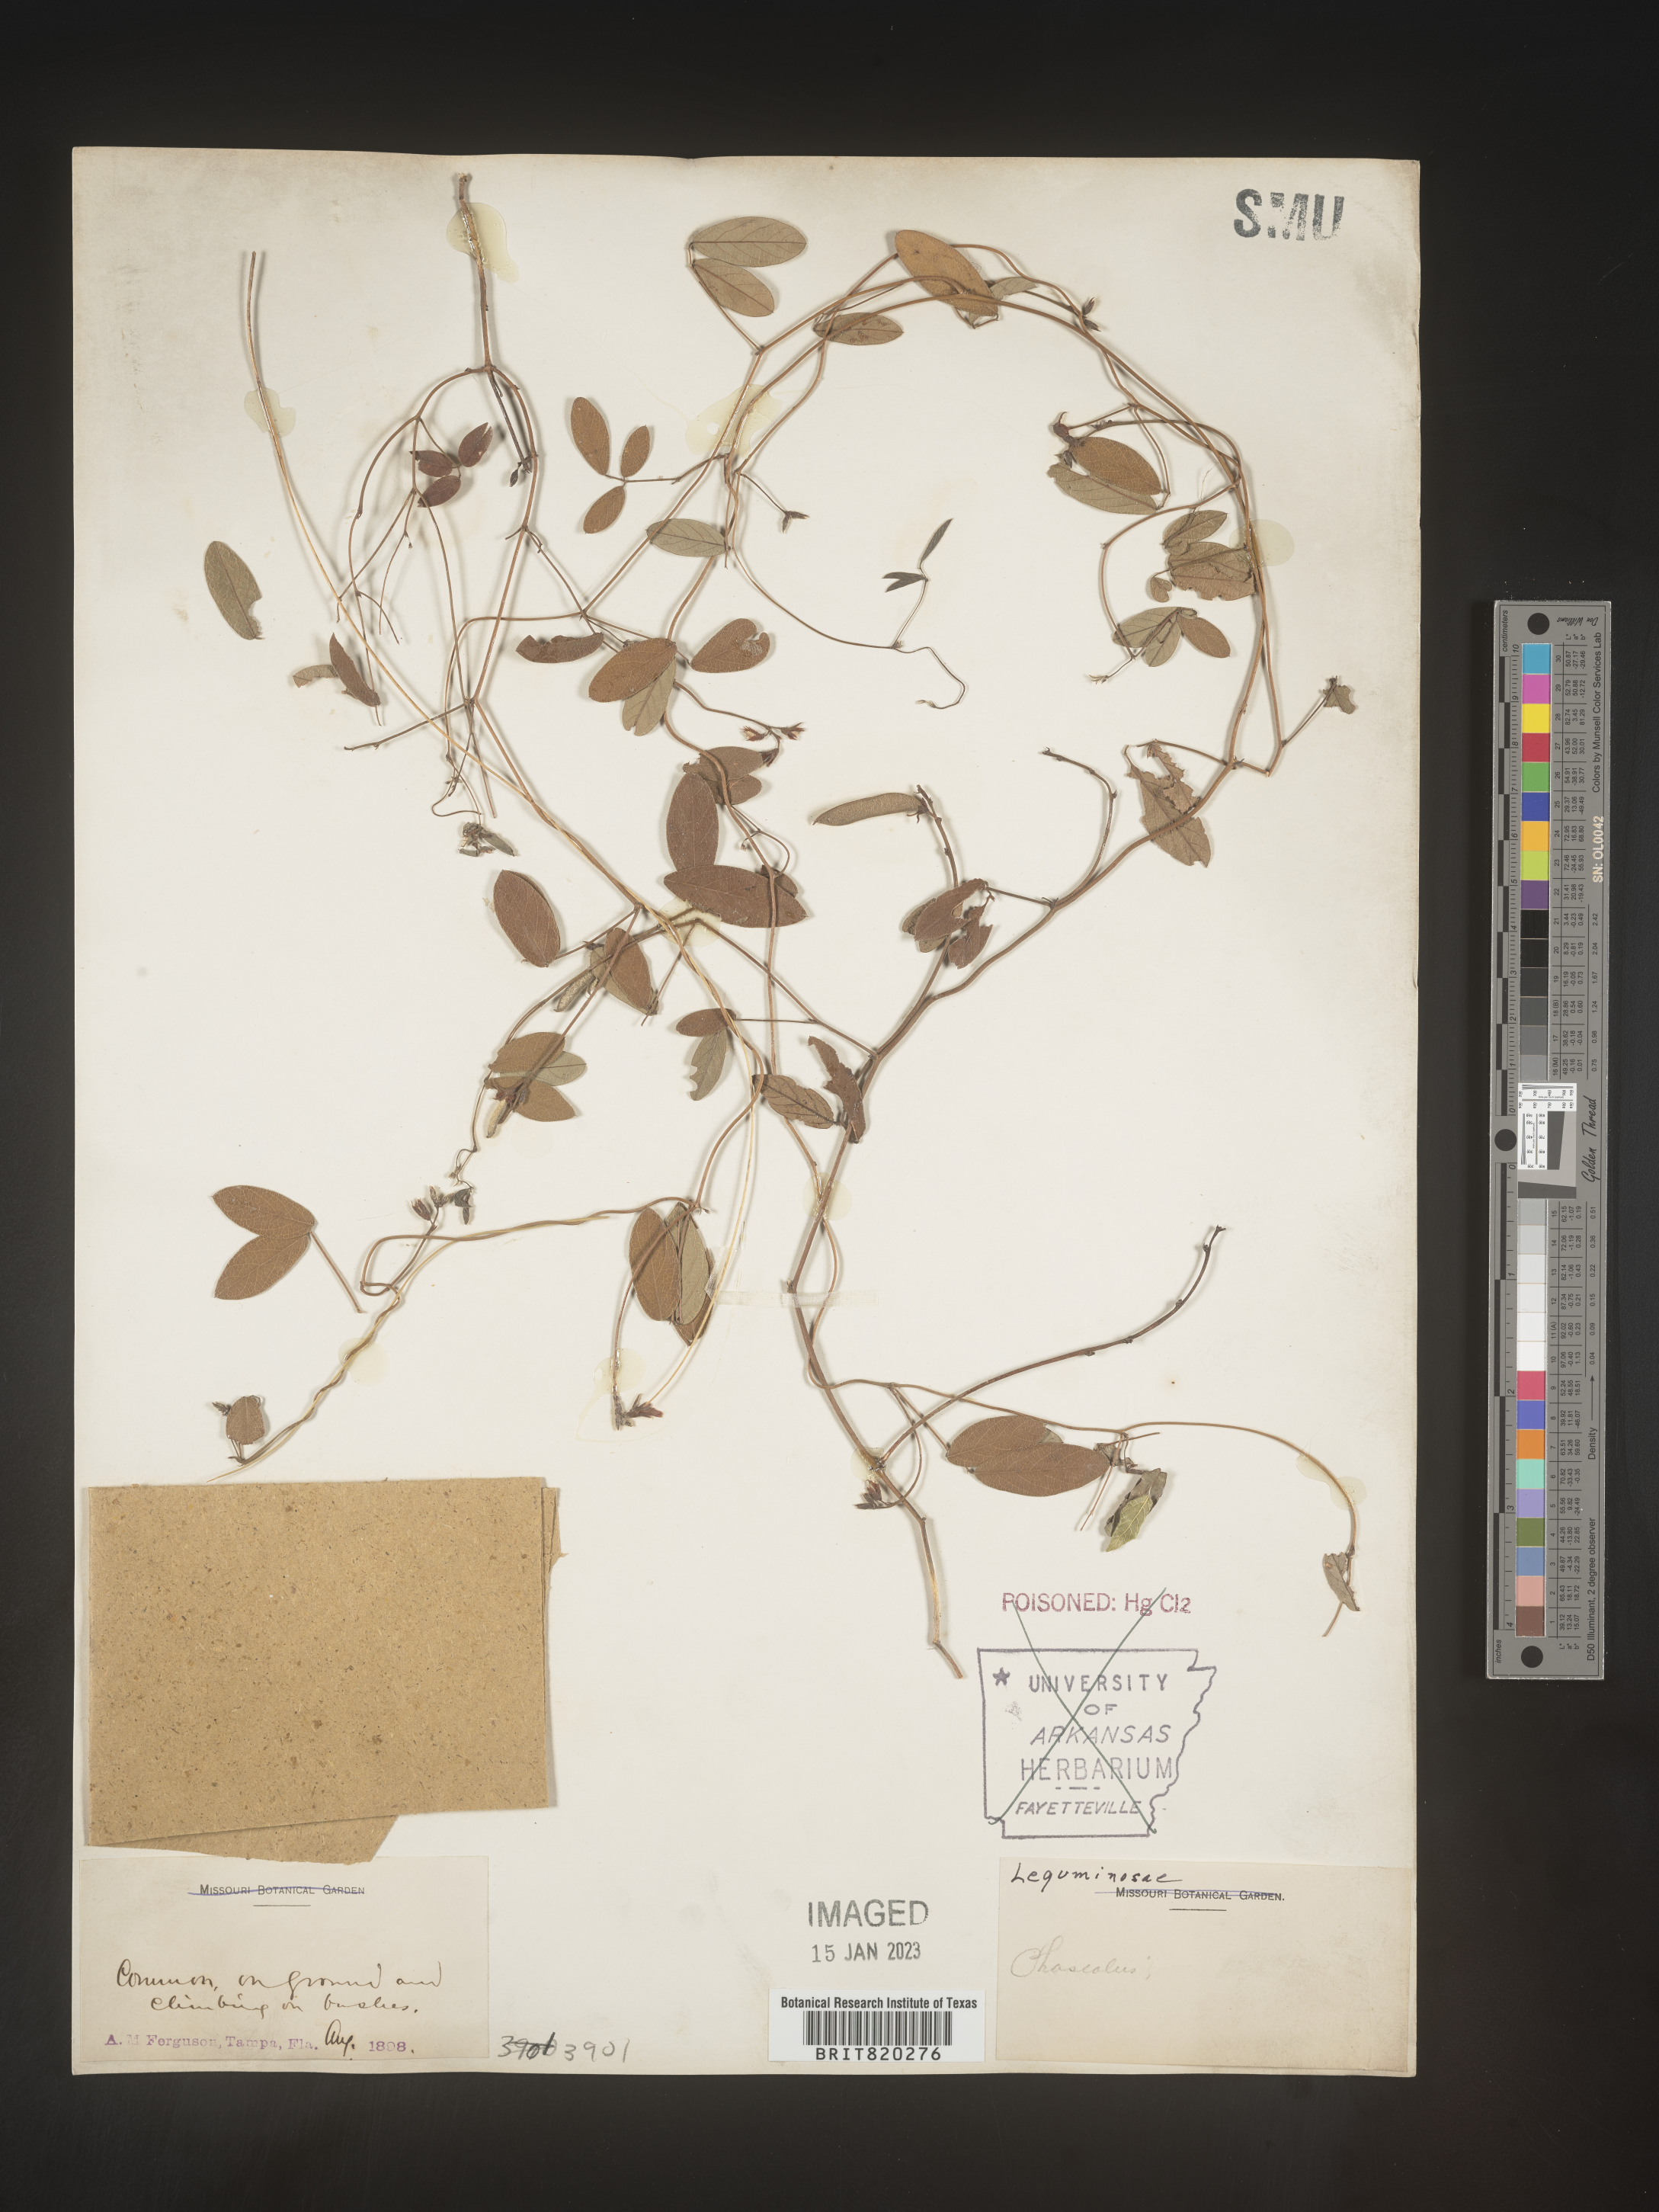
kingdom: Plantae
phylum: Tracheophyta
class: Magnoliopsida
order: Fabales
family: Fabaceae
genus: Galactia
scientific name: Galactia volubilis
